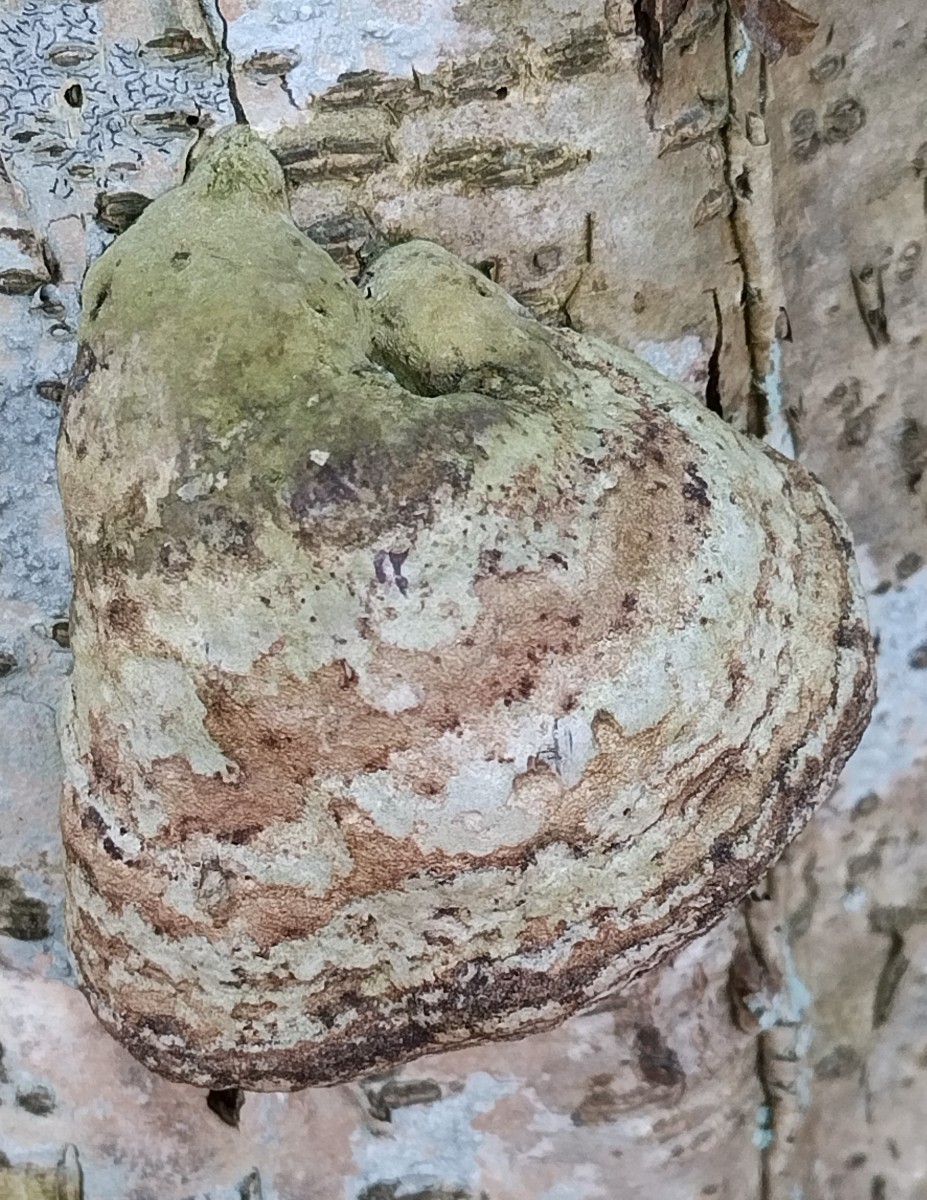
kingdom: Fungi
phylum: Basidiomycota
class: Agaricomycetes
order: Polyporales
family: Polyporaceae
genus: Fomes
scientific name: Fomes fomentarius
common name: tøndersvamp
